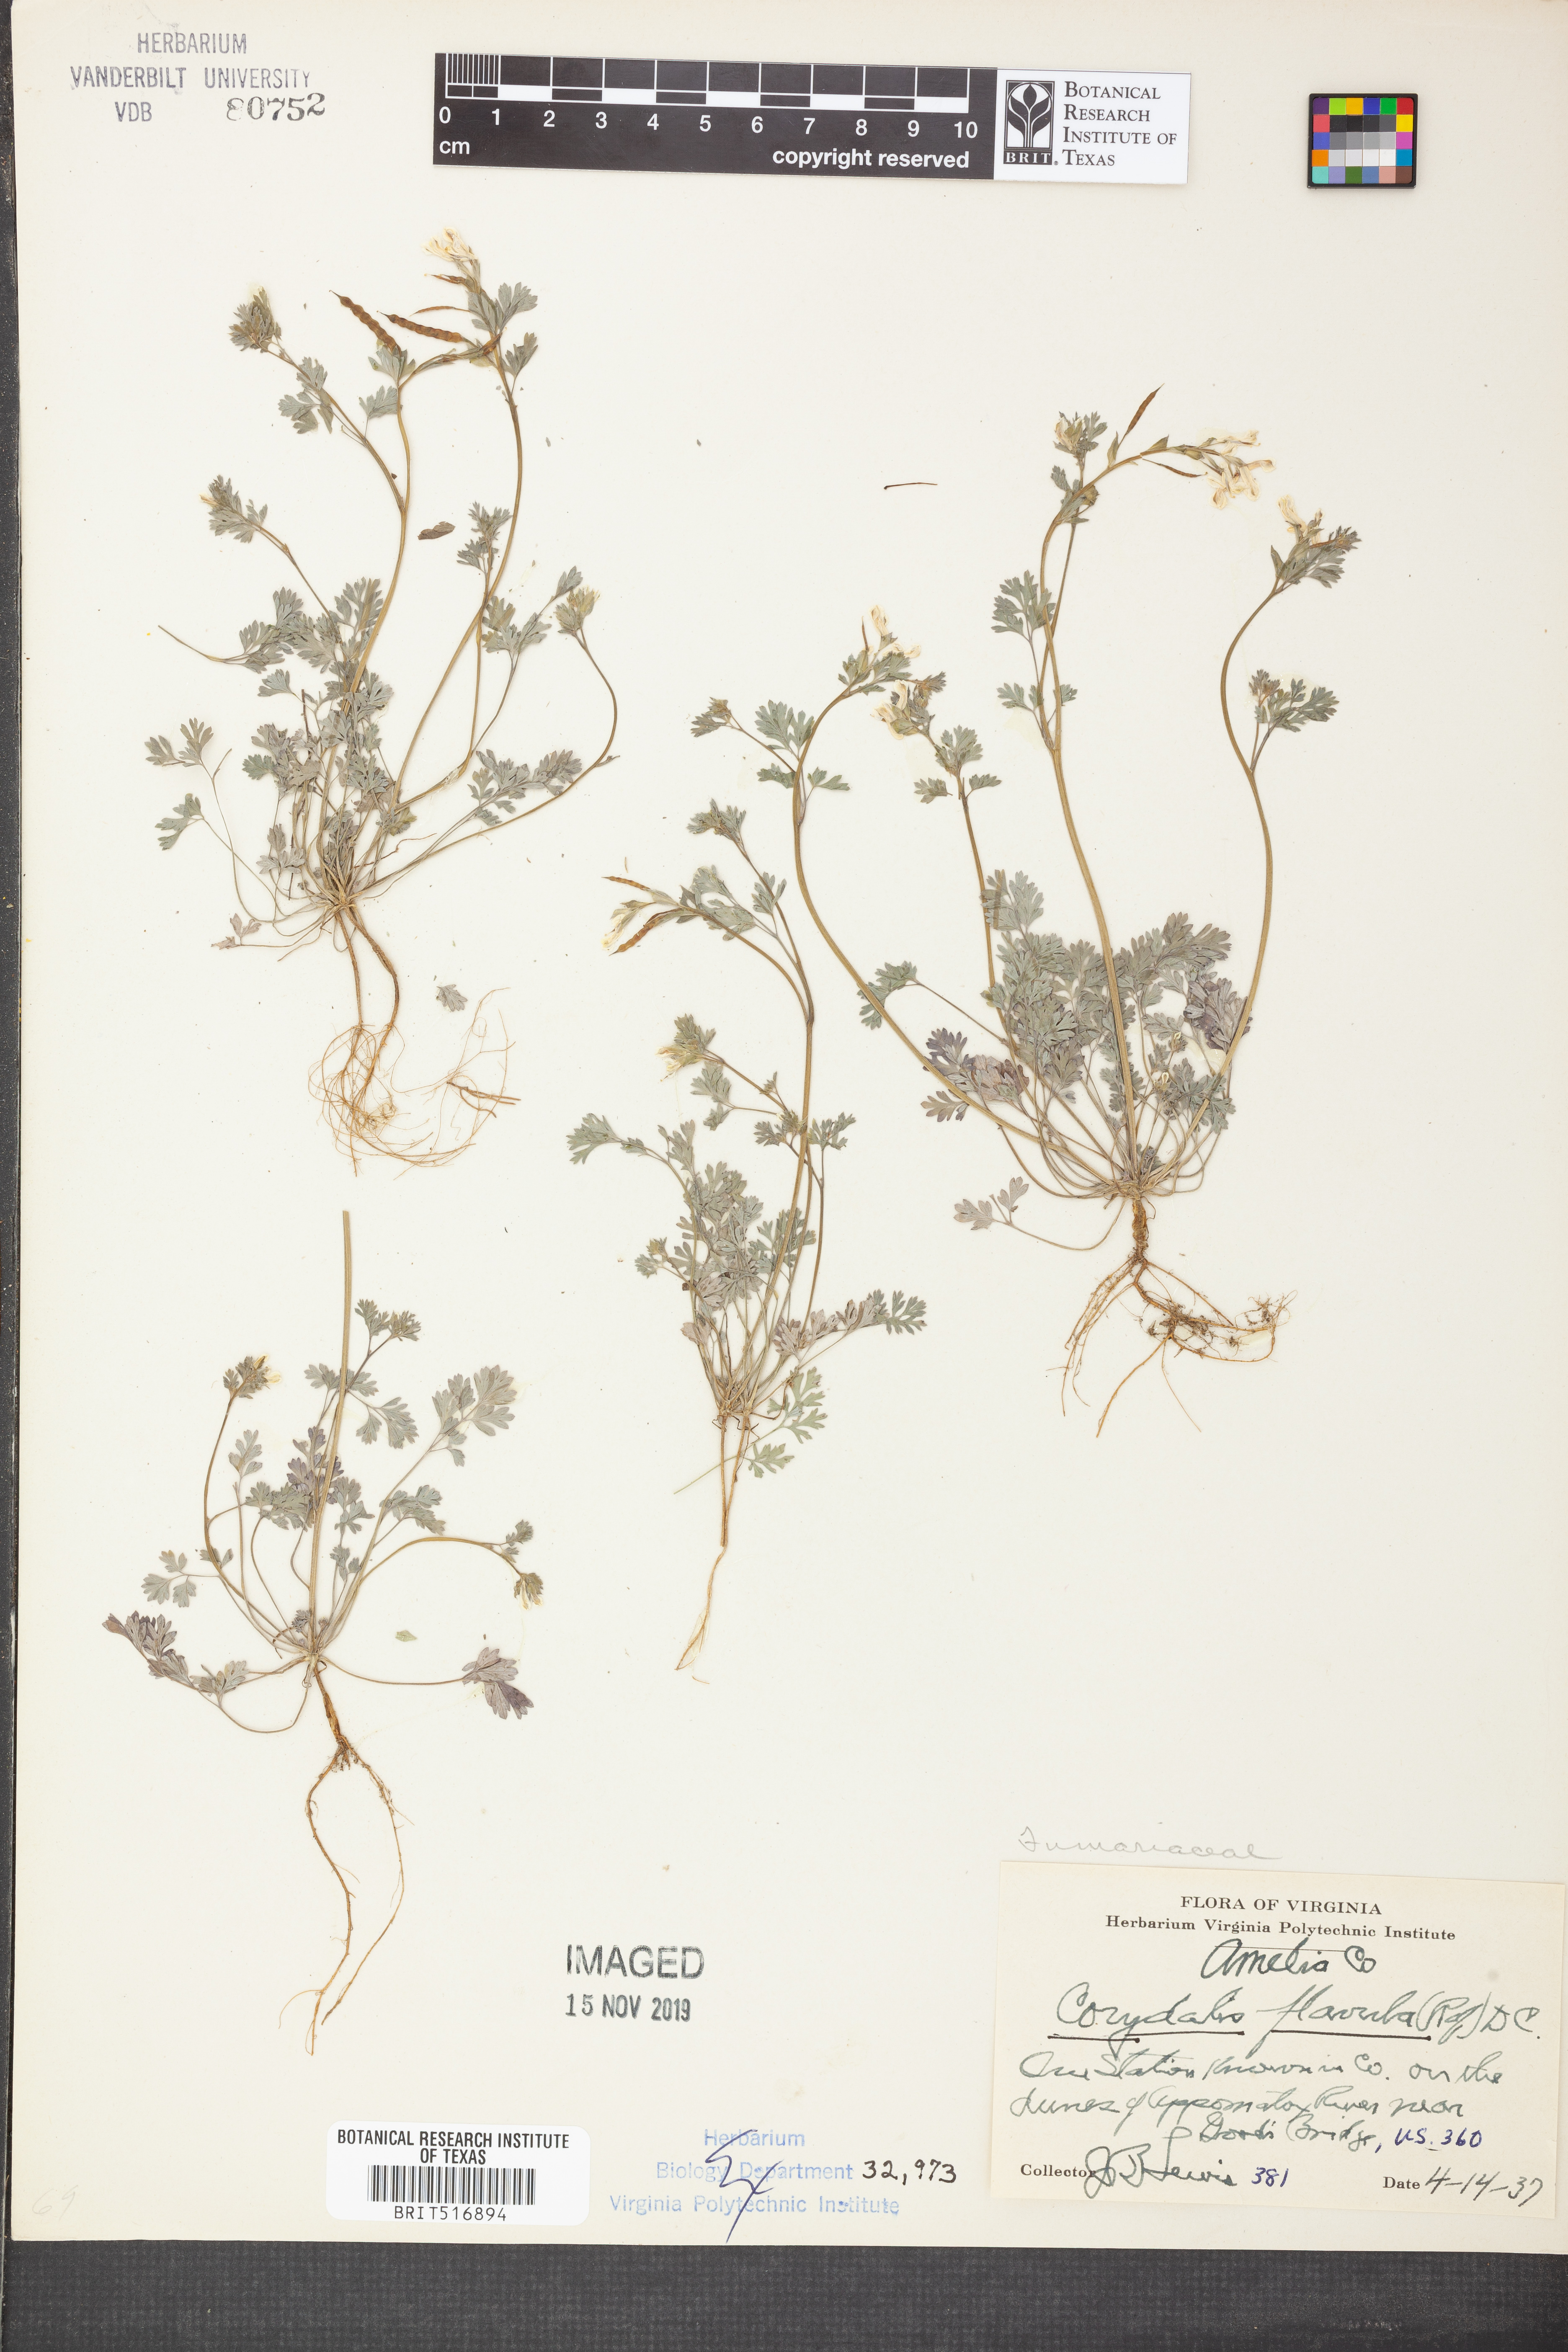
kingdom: Plantae
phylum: Tracheophyta
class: Magnoliopsida
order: Ranunculales
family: Papaveraceae
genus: Corydalis
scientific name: Corydalis flavula
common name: Yellow corydalis
